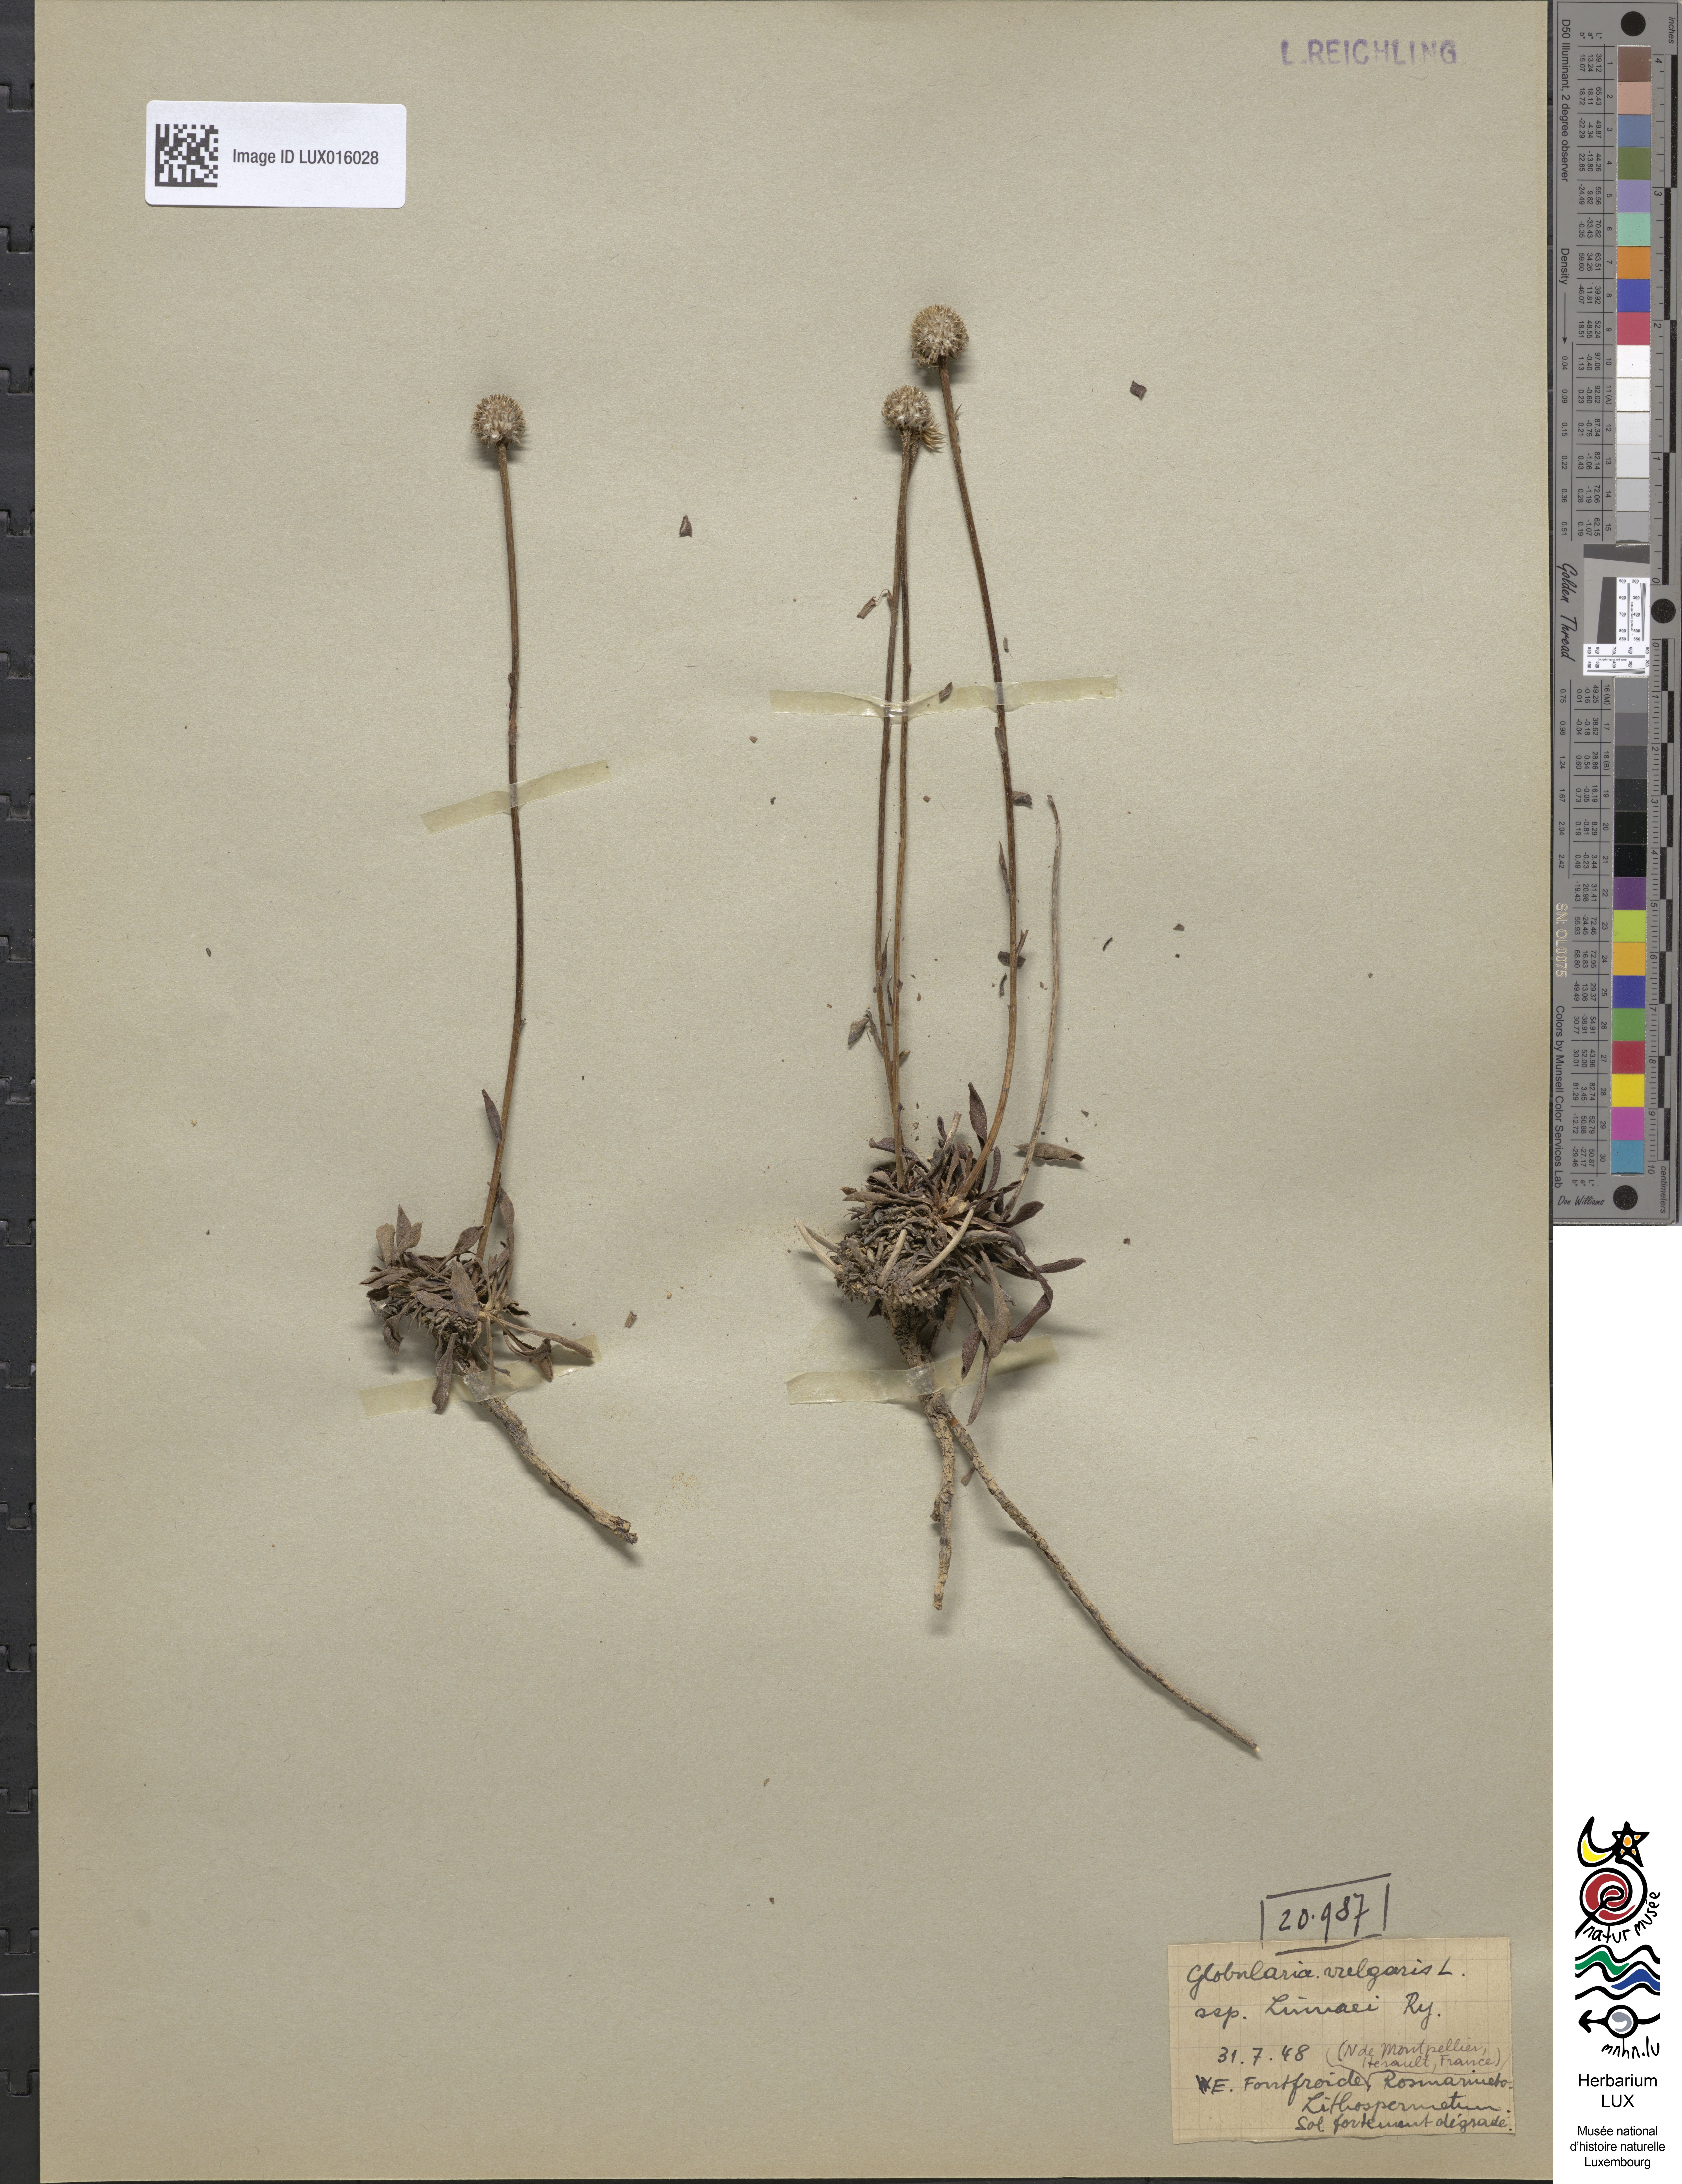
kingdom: Plantae
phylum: Tracheophyta
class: Magnoliopsida
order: Lamiales
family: Plantaginaceae
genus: Globularia
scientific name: Globularia vulgaris
